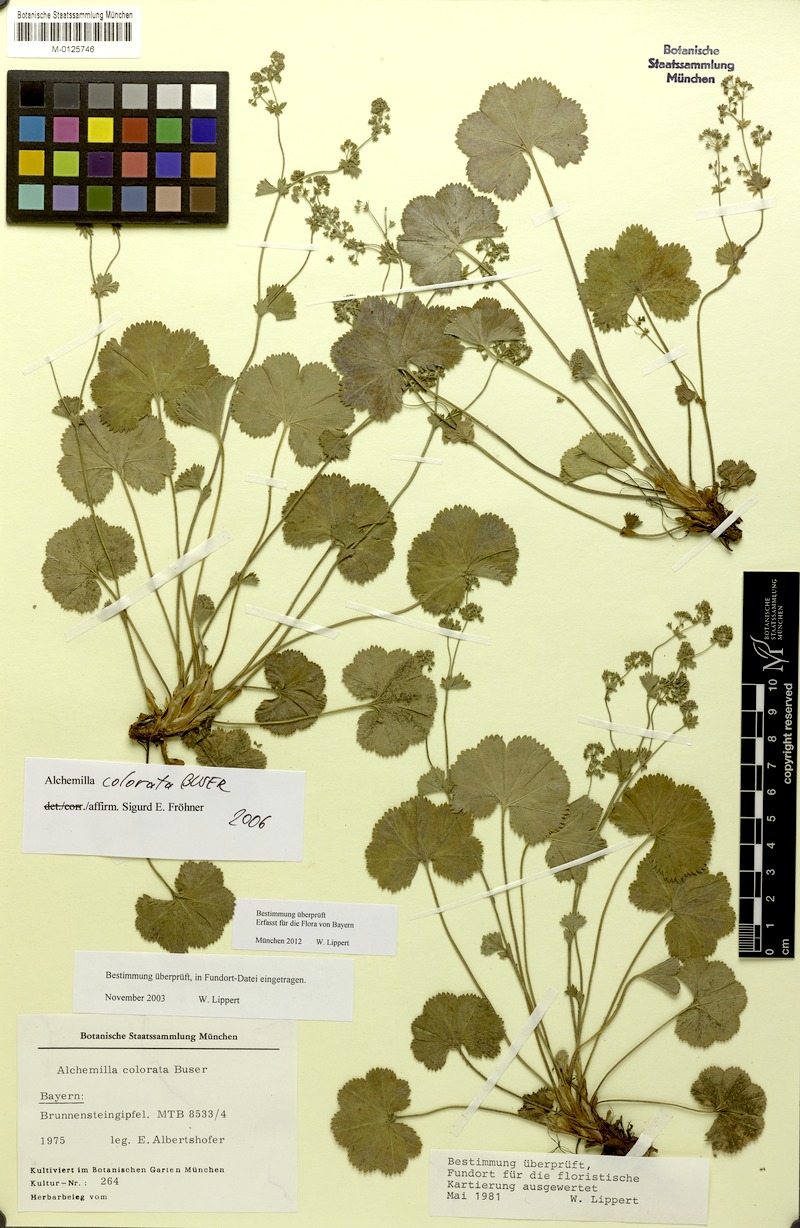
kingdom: Plantae
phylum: Tracheophyta
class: Magnoliopsida
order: Rosales
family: Rosaceae
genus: Alchemilla
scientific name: Alchemilla colorata
